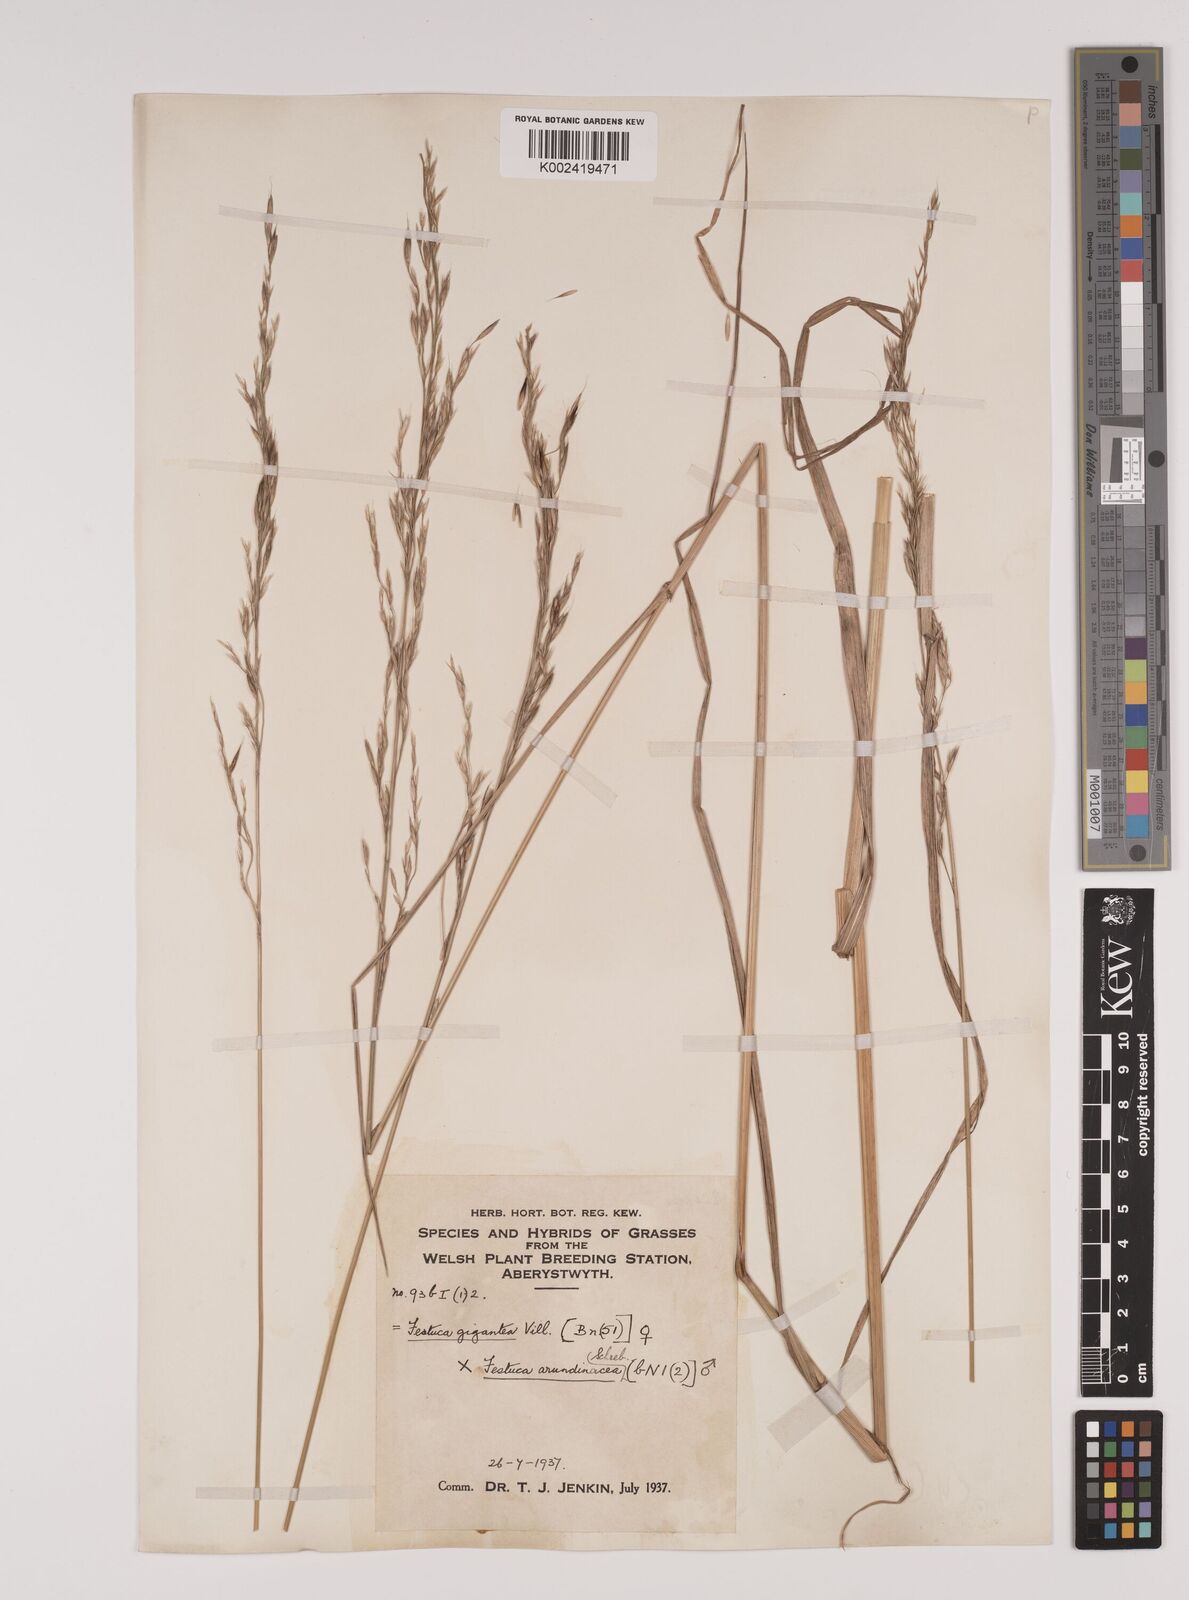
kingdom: Plantae
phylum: Tracheophyta
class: Liliopsida
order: Poales
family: Poaceae
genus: Lolium
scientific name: Lolium giganteum
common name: Giant fescue
